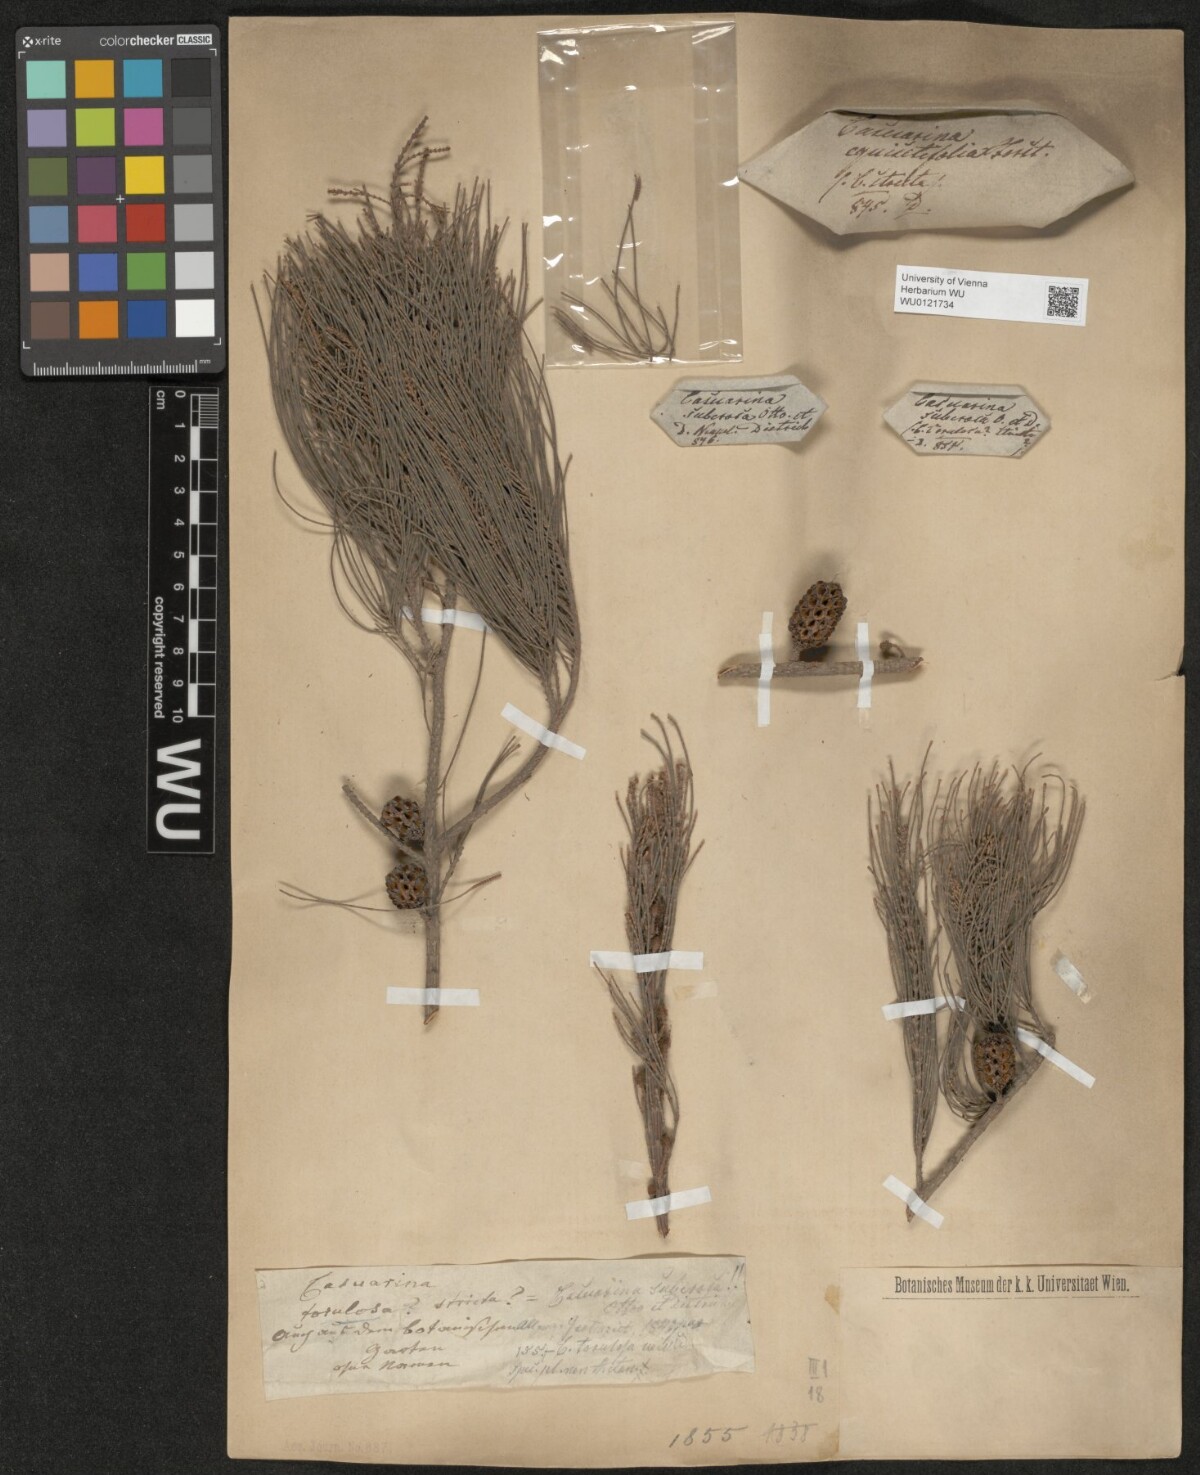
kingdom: Plantae
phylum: Tracheophyta
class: Magnoliopsida
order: Fagales
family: Casuarinaceae
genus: Allocasuarina
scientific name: Allocasuarina torulosa
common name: Forest-oak
